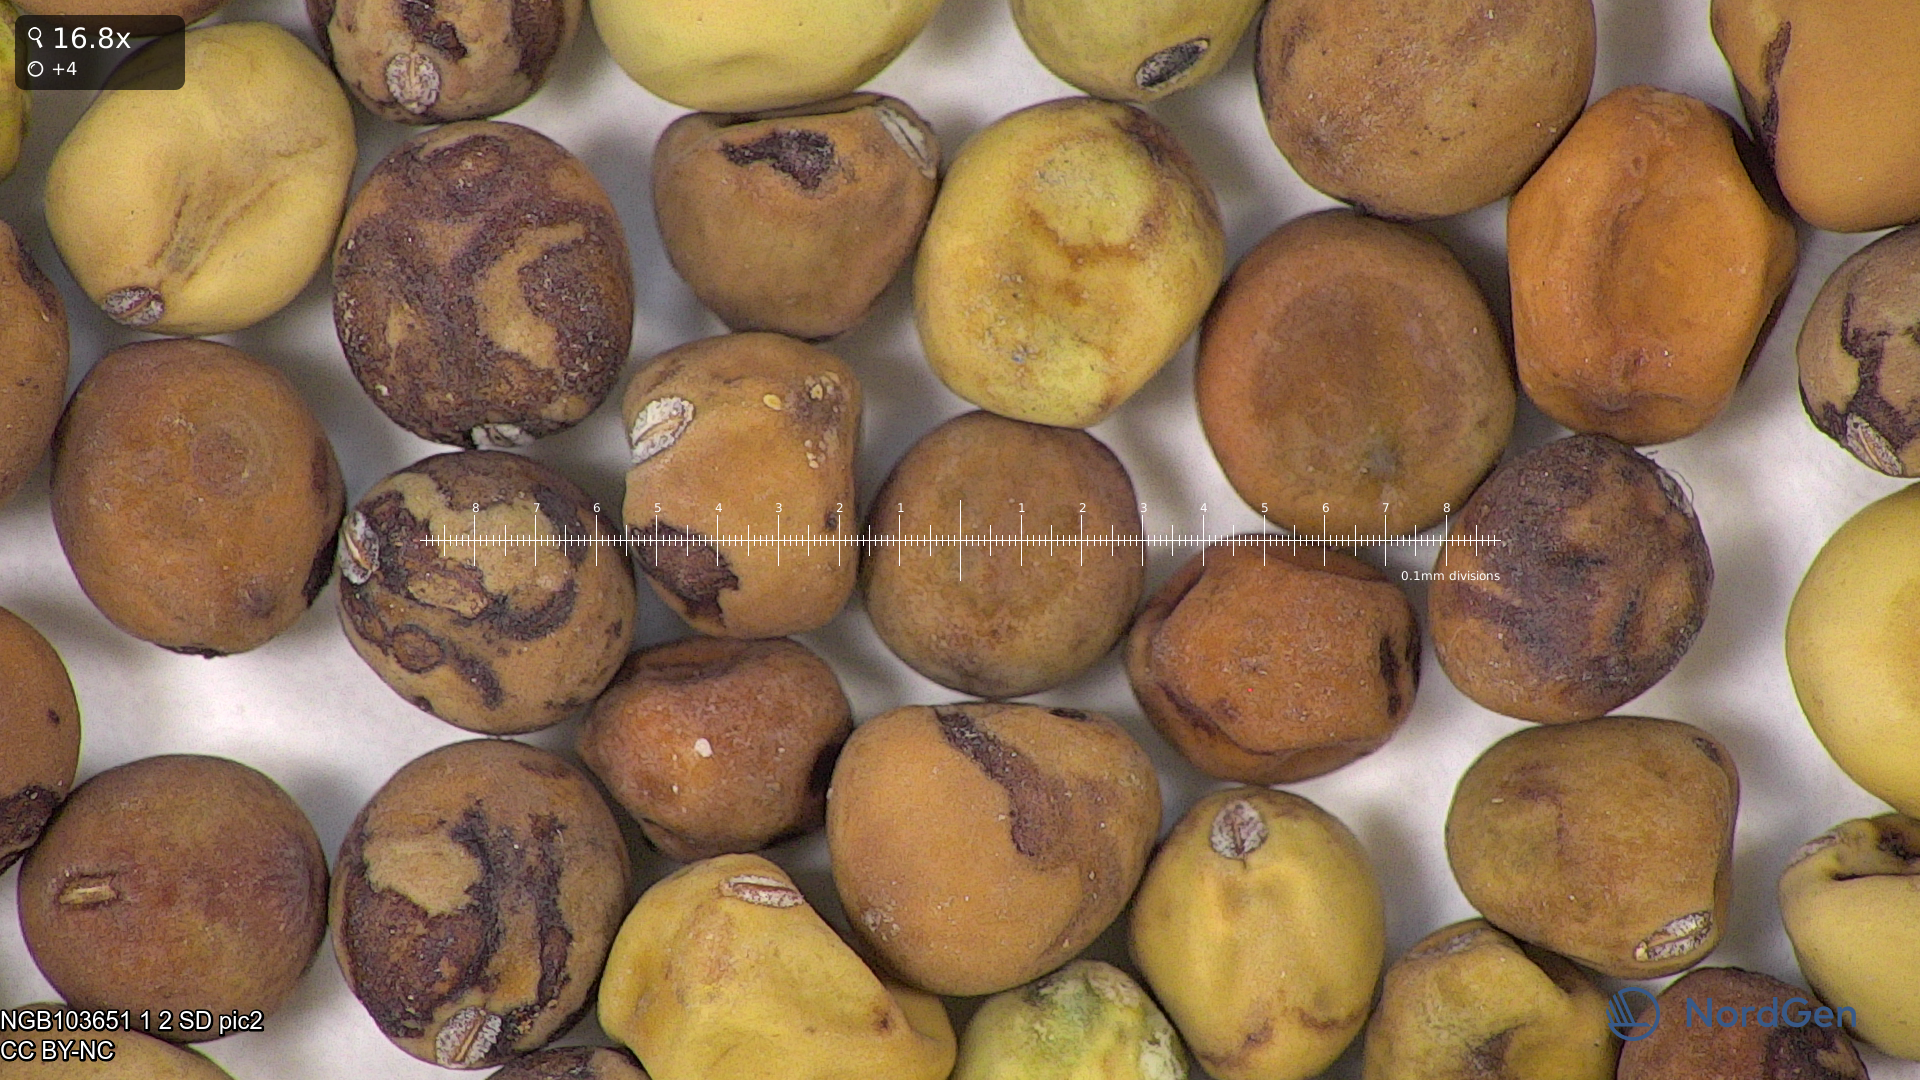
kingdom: Plantae
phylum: Tracheophyta
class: Magnoliopsida
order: Fabales
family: Fabaceae
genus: Lathyrus
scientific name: Lathyrus oleraceus
